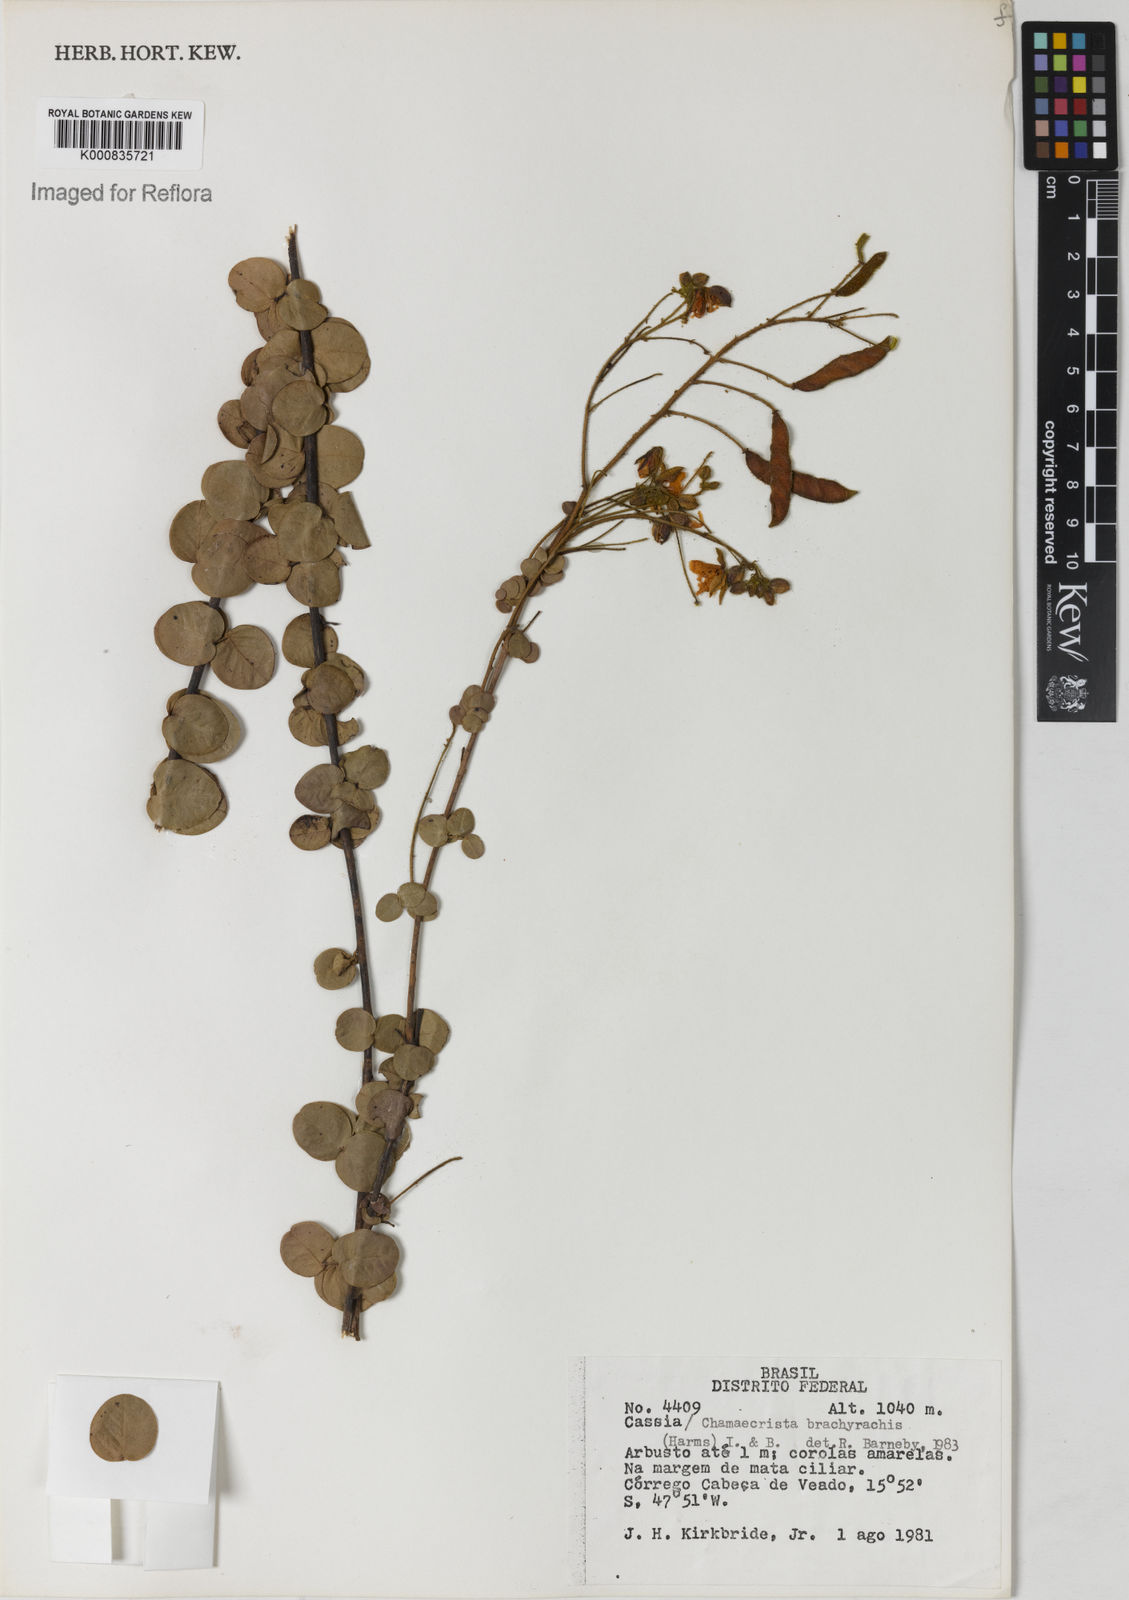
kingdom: Plantae
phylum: Tracheophyta
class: Magnoliopsida
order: Fabales
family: Fabaceae
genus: Chamaecrista
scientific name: Chamaecrista brachyrachis
